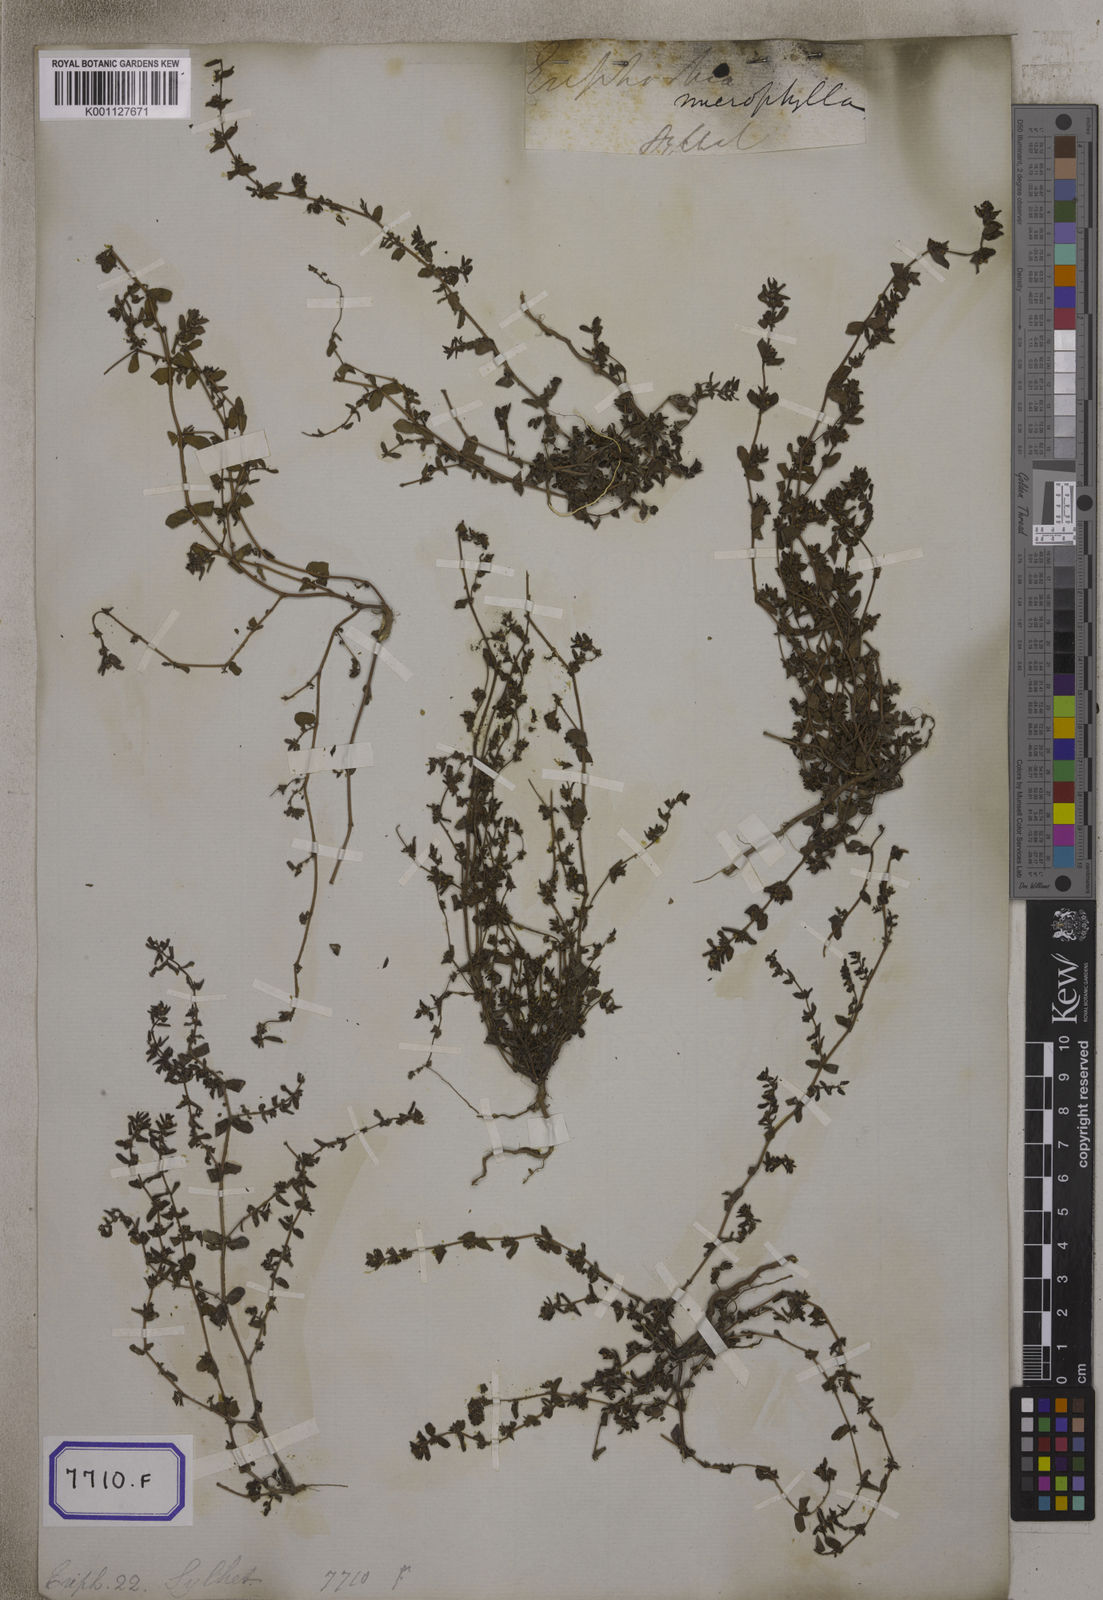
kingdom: Plantae
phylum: Tracheophyta
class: Magnoliopsida
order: Malpighiales
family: Euphorbiaceae
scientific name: Euphorbiaceae
